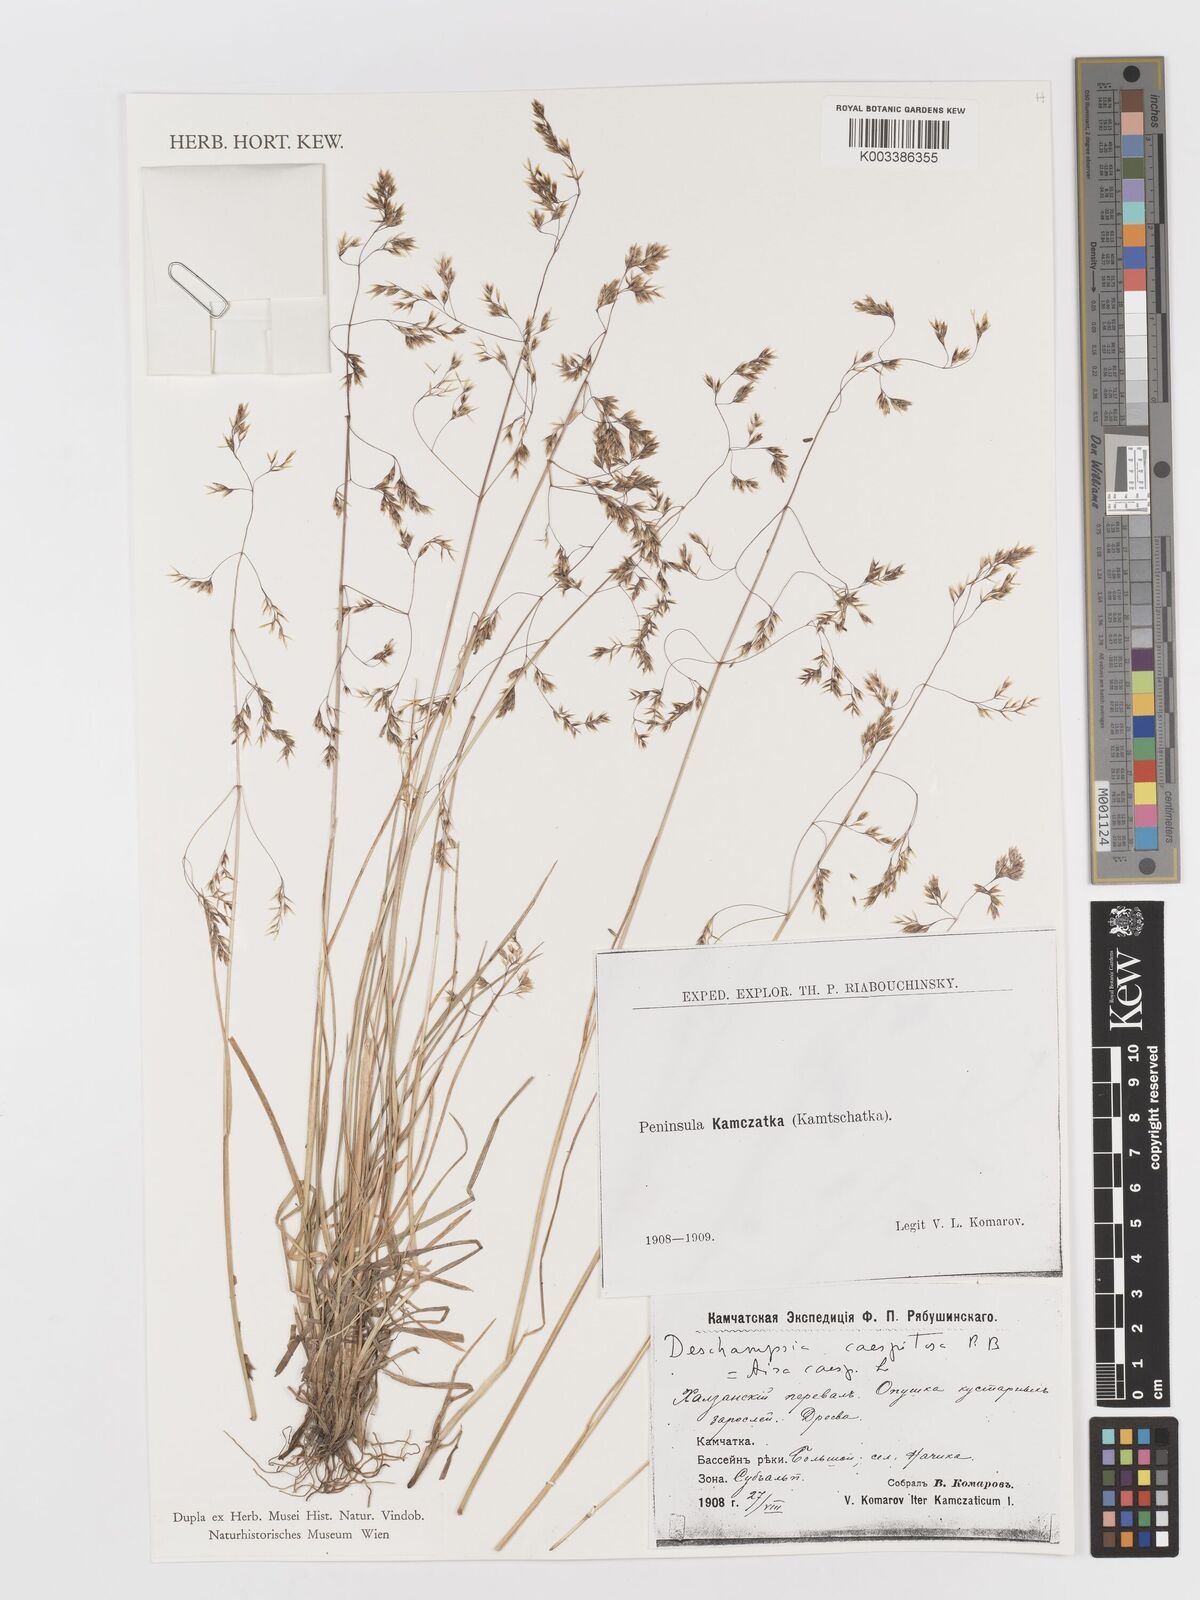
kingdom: Plantae
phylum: Tracheophyta
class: Liliopsida
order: Poales
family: Poaceae
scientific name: Poaceae
